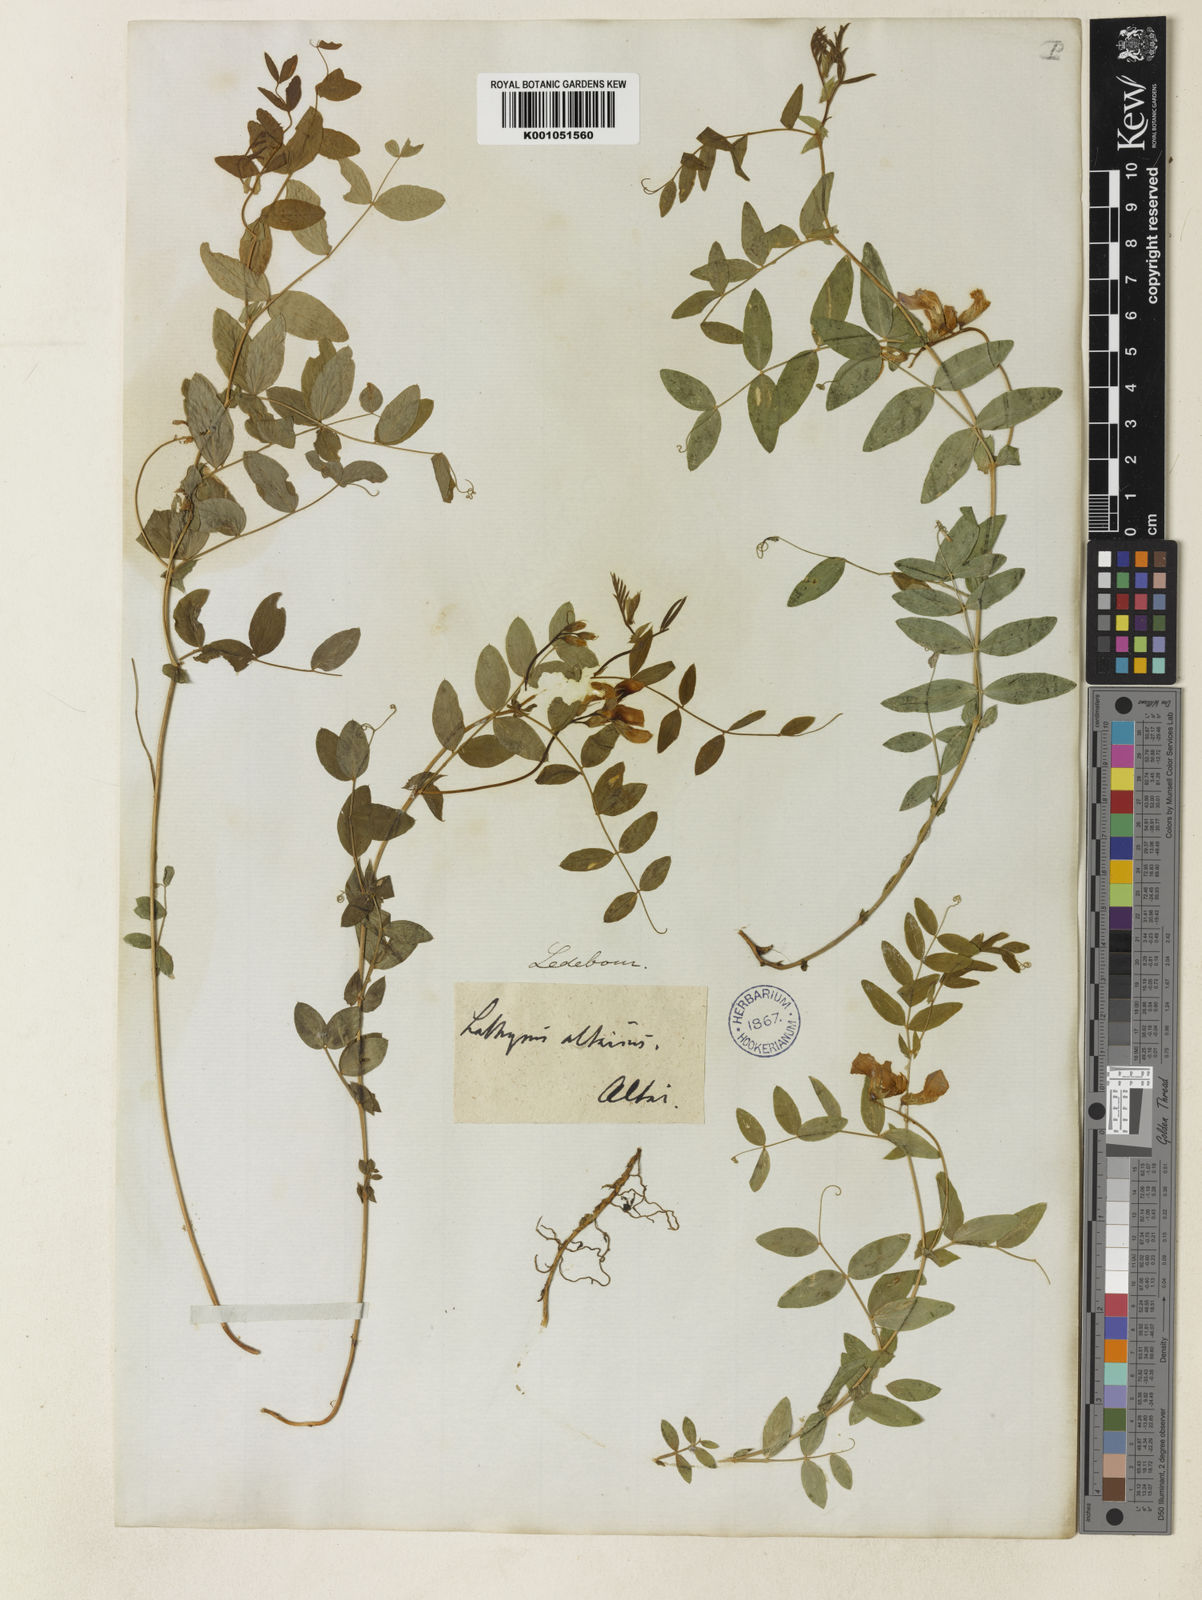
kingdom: Plantae
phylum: Tracheophyta
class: Magnoliopsida
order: Fabales
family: Fabaceae
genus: Lathyrus
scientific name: Lathyrus humilis
